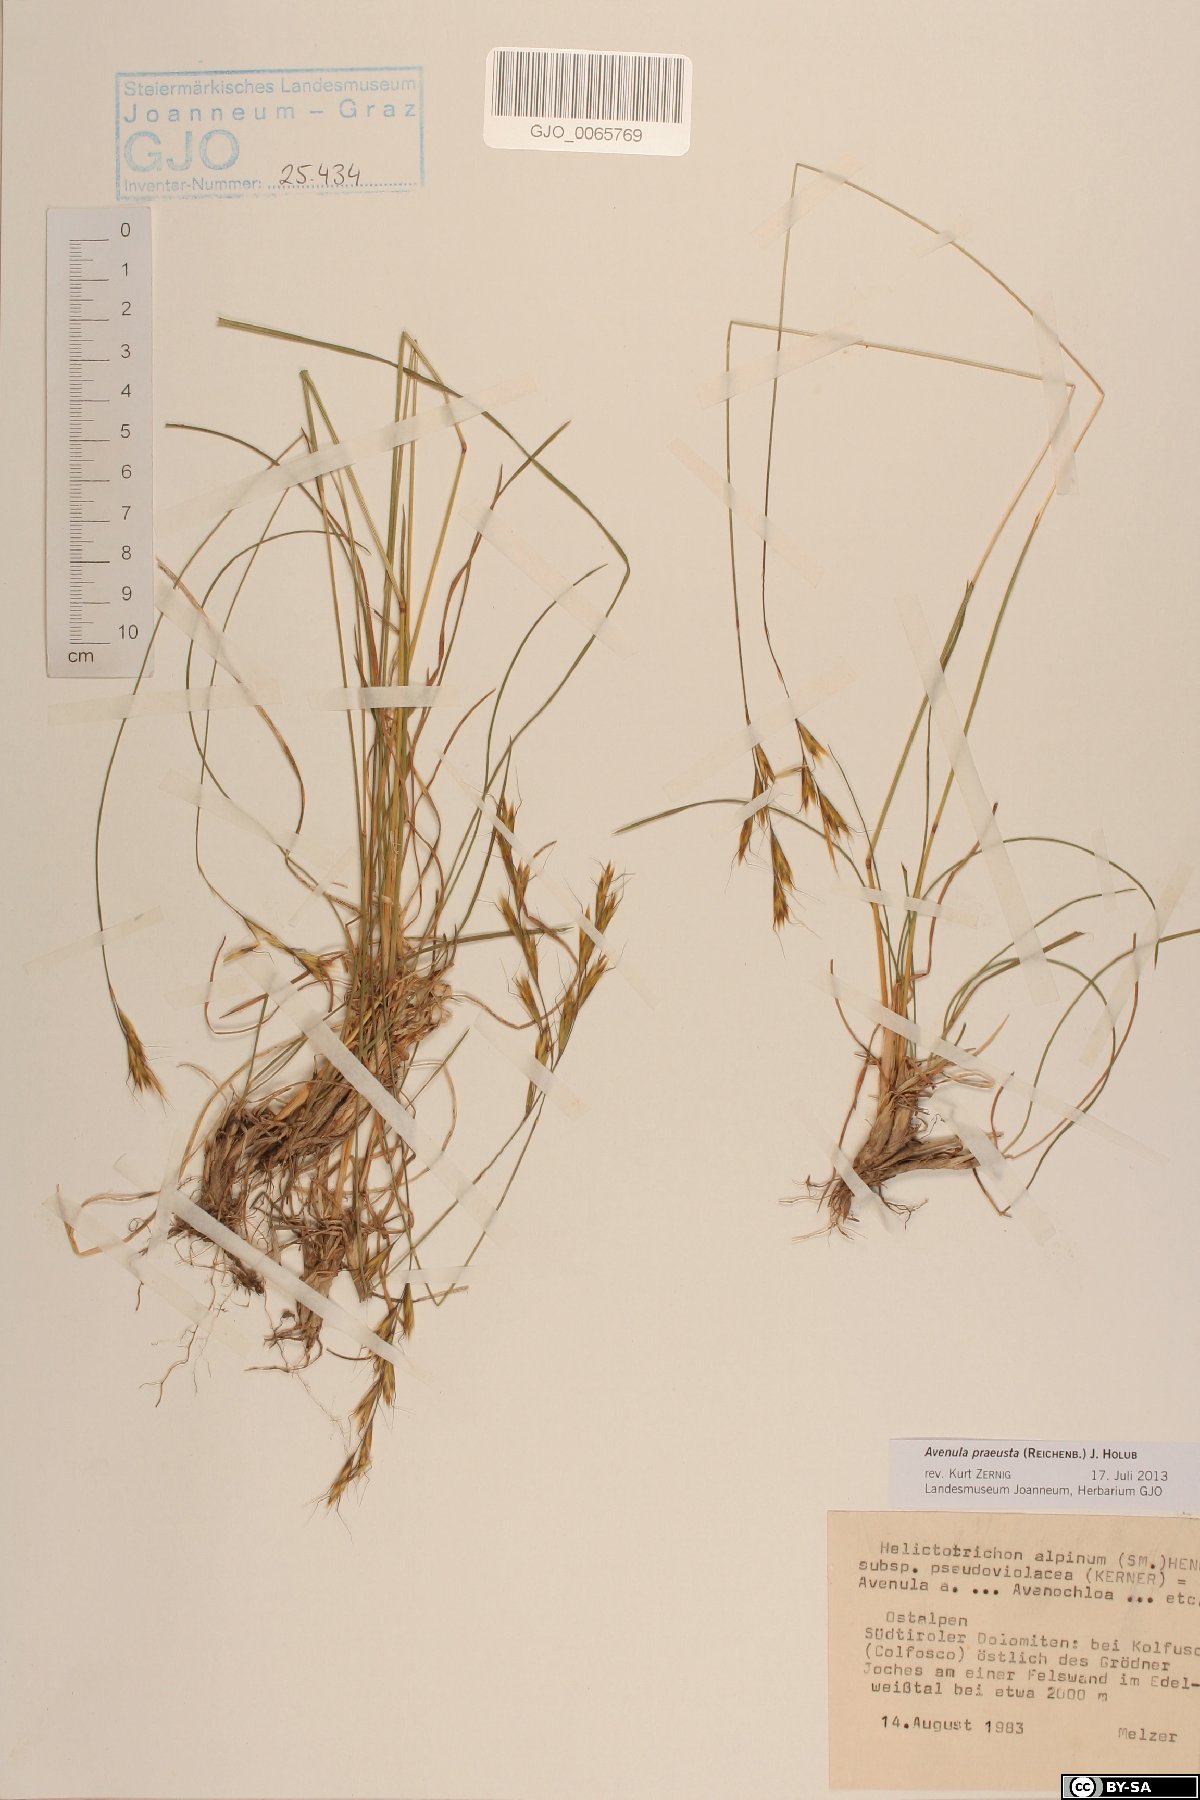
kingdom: Plantae
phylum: Tracheophyta
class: Liliopsida
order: Poales
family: Poaceae
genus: Helictochloa
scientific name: Helictochloa praeusta
